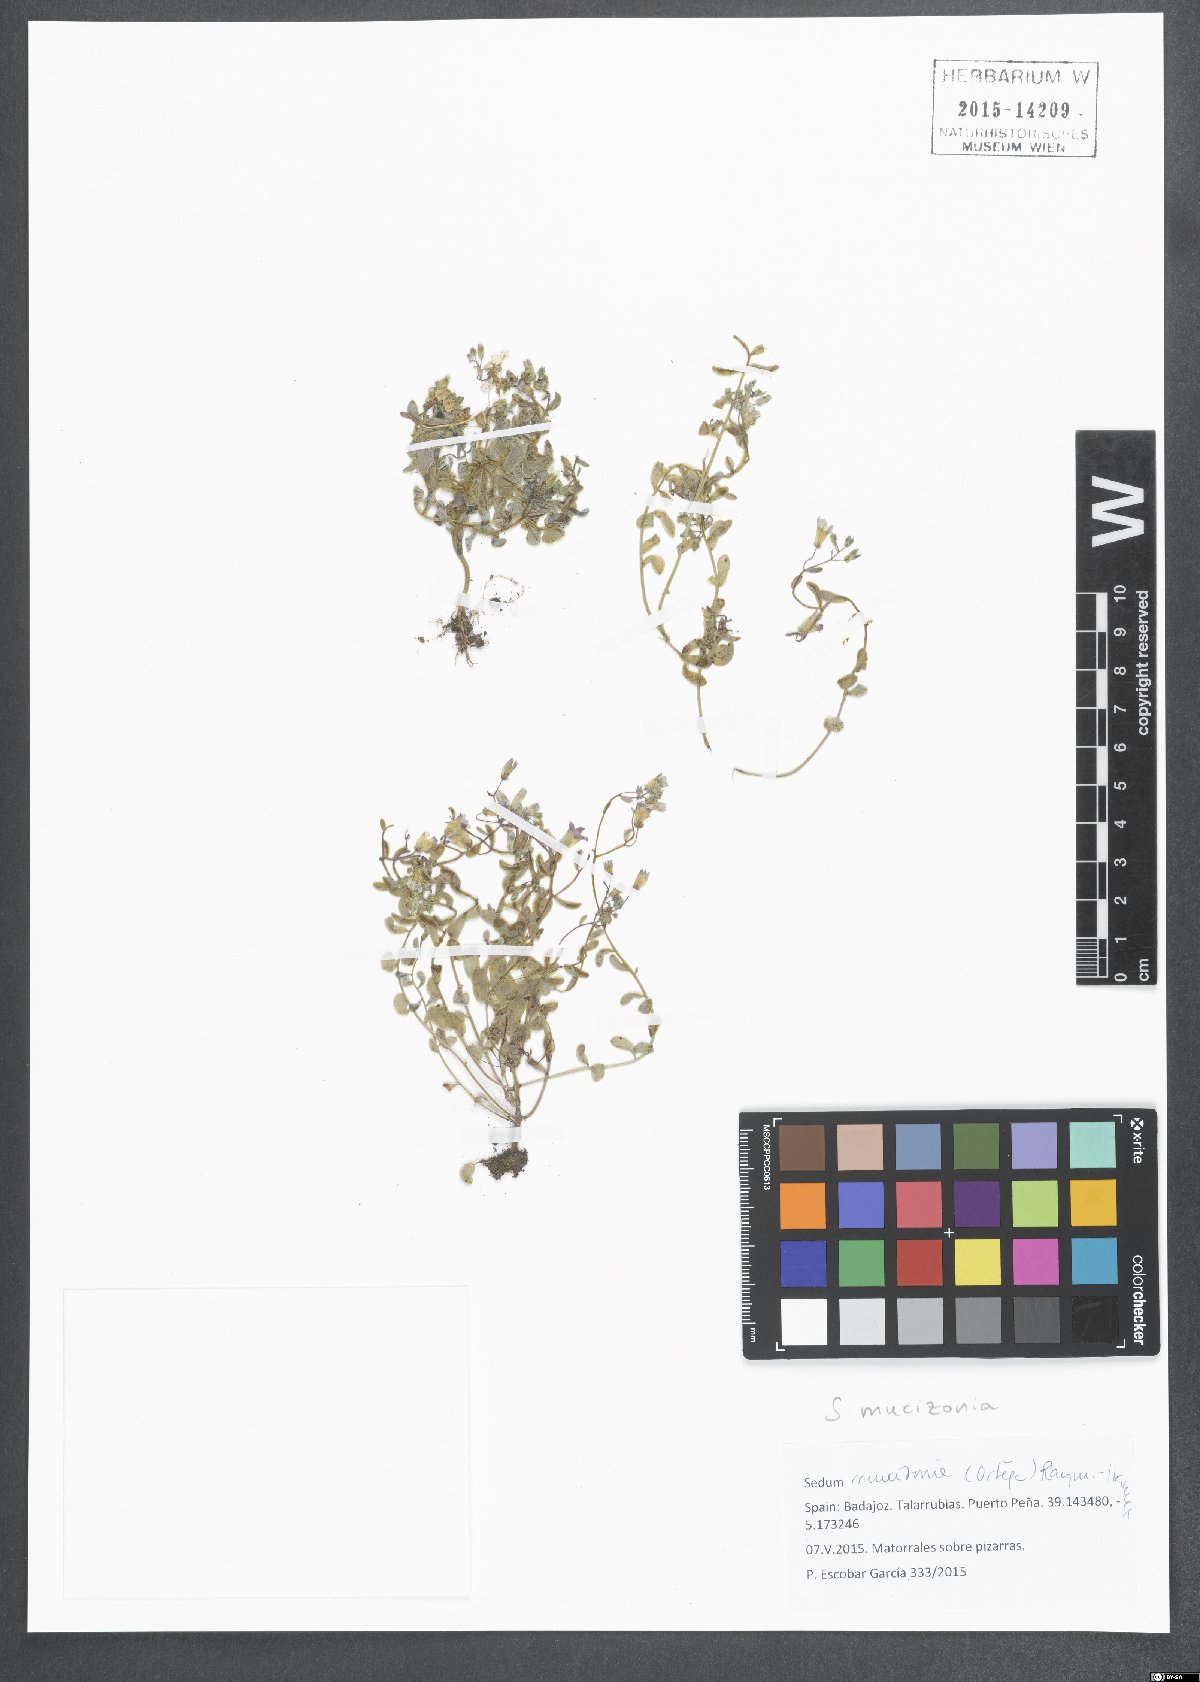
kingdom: Plantae
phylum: Tracheophyta
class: Magnoliopsida
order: Saxifragales
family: Crassulaceae
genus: Sedum
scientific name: Sedum mucizonia
